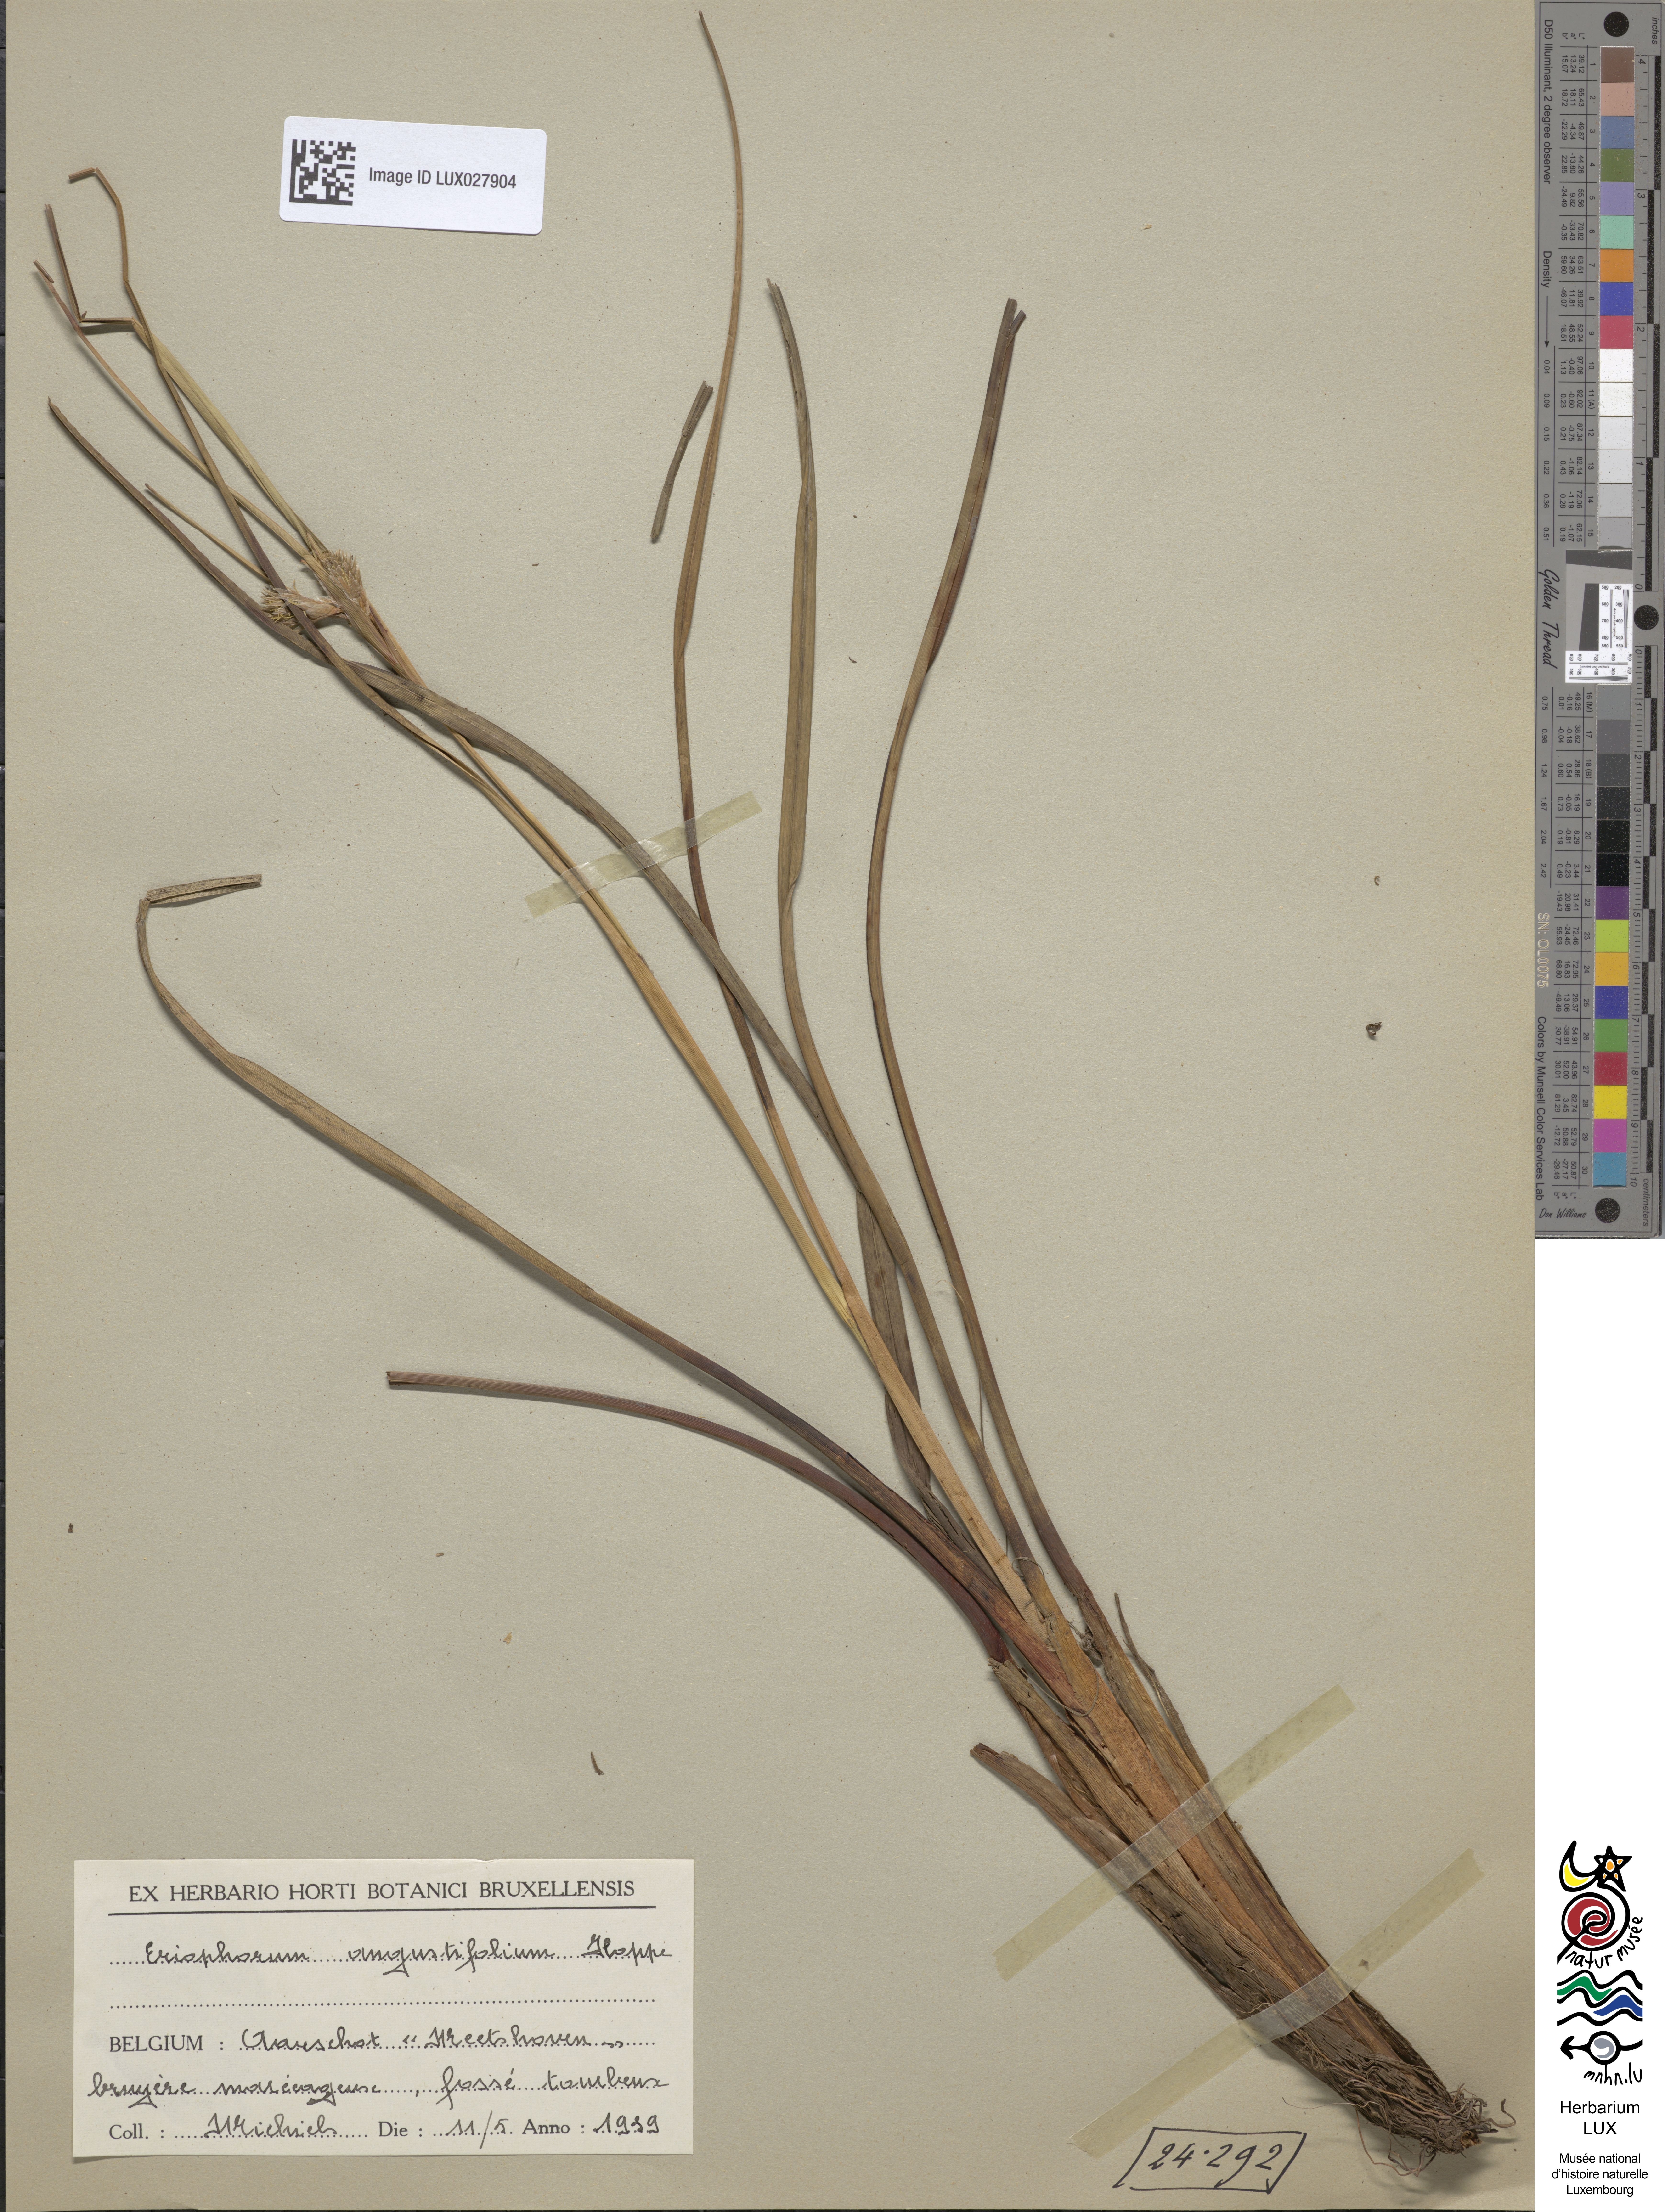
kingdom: Plantae
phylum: Tracheophyta
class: Liliopsida
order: Poales
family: Cyperaceae
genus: Eriophorum
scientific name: Eriophorum angustifolium
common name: Common cottongrass
